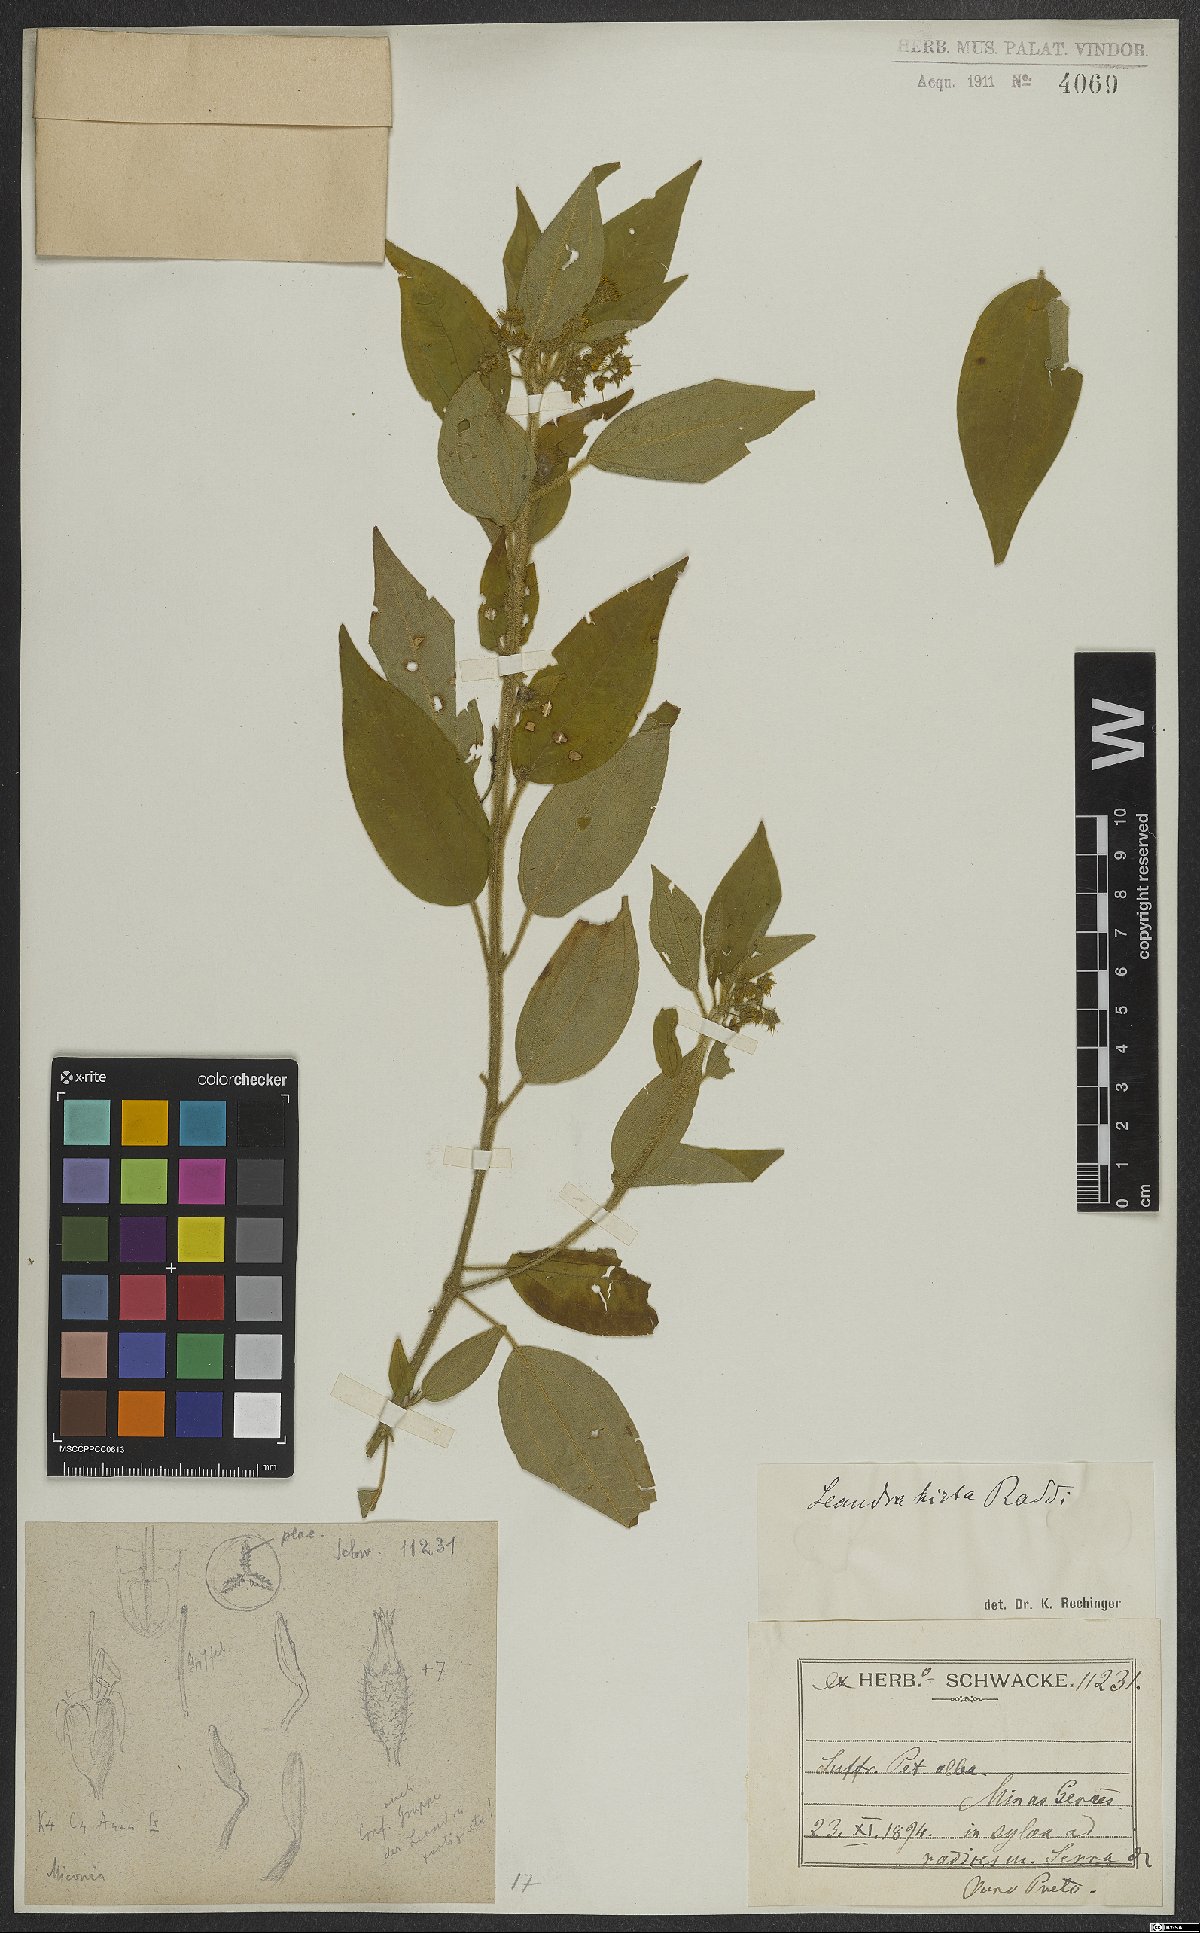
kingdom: Plantae
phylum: Tracheophyta
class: Magnoliopsida
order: Myrtales
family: Melastomataceae
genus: Miconia
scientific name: Miconia dubia
